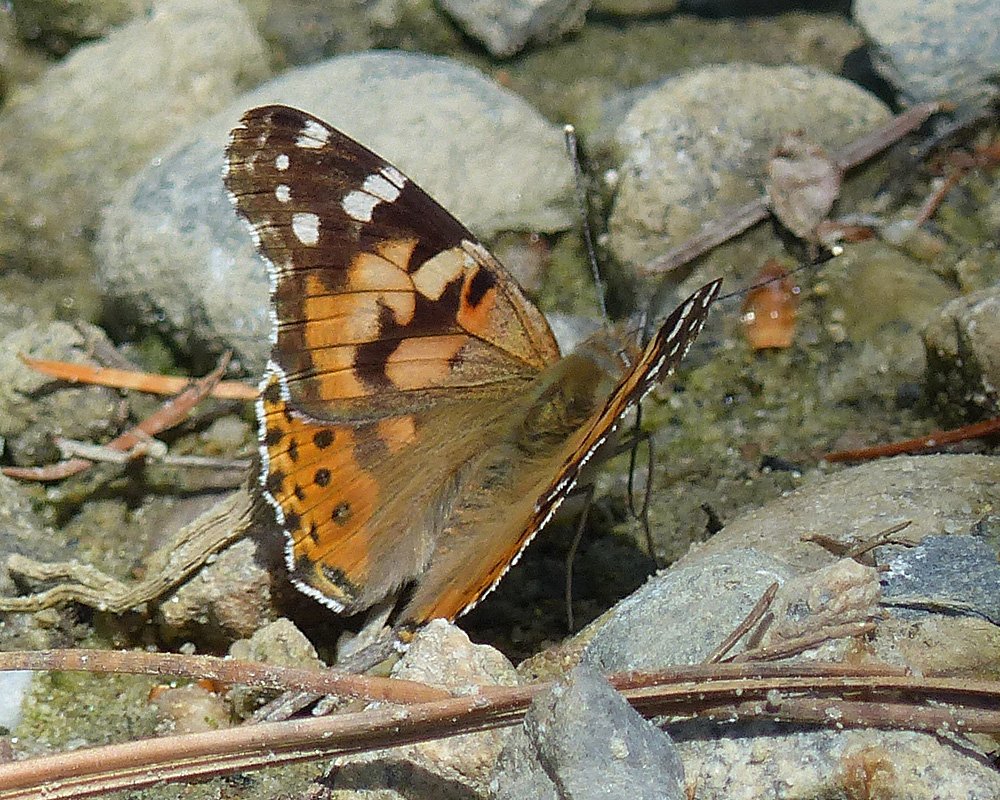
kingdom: Animalia
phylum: Arthropoda
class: Insecta
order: Lepidoptera
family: Nymphalidae
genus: Vanessa
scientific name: Vanessa cardui
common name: Painted Lady
